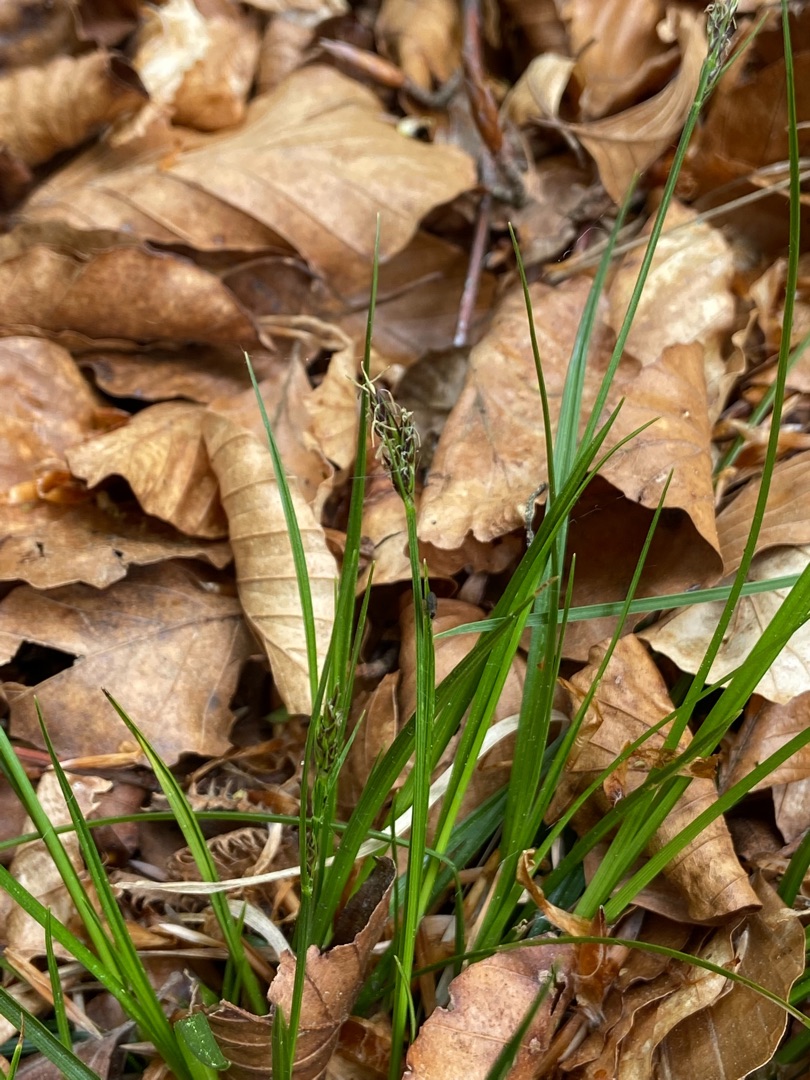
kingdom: Plantae
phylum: Tracheophyta
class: Liliopsida
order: Poales
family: Cyperaceae
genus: Carex
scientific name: Carex pilulifera
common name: Pille-star
